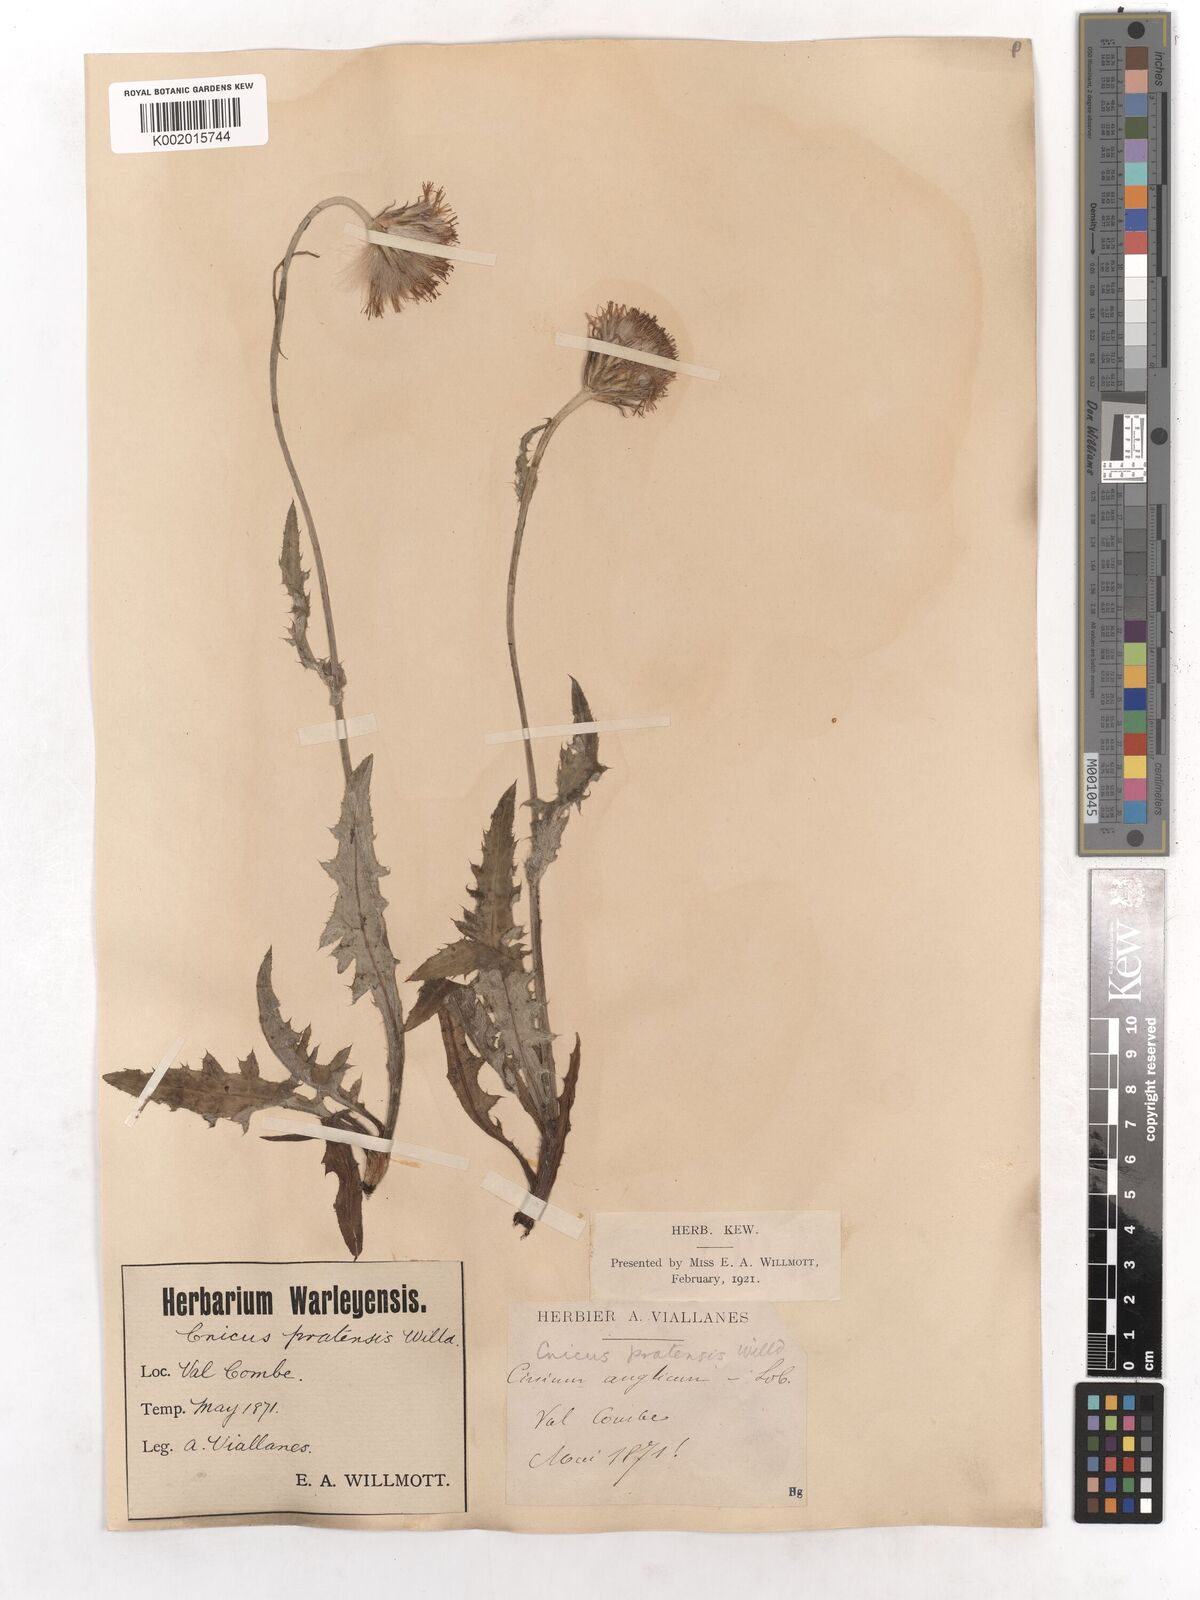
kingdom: Plantae
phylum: Tracheophyta
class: Magnoliopsida
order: Asterales
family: Asteraceae
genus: Cirsium
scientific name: Cirsium dissectum
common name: Meadow thistle
